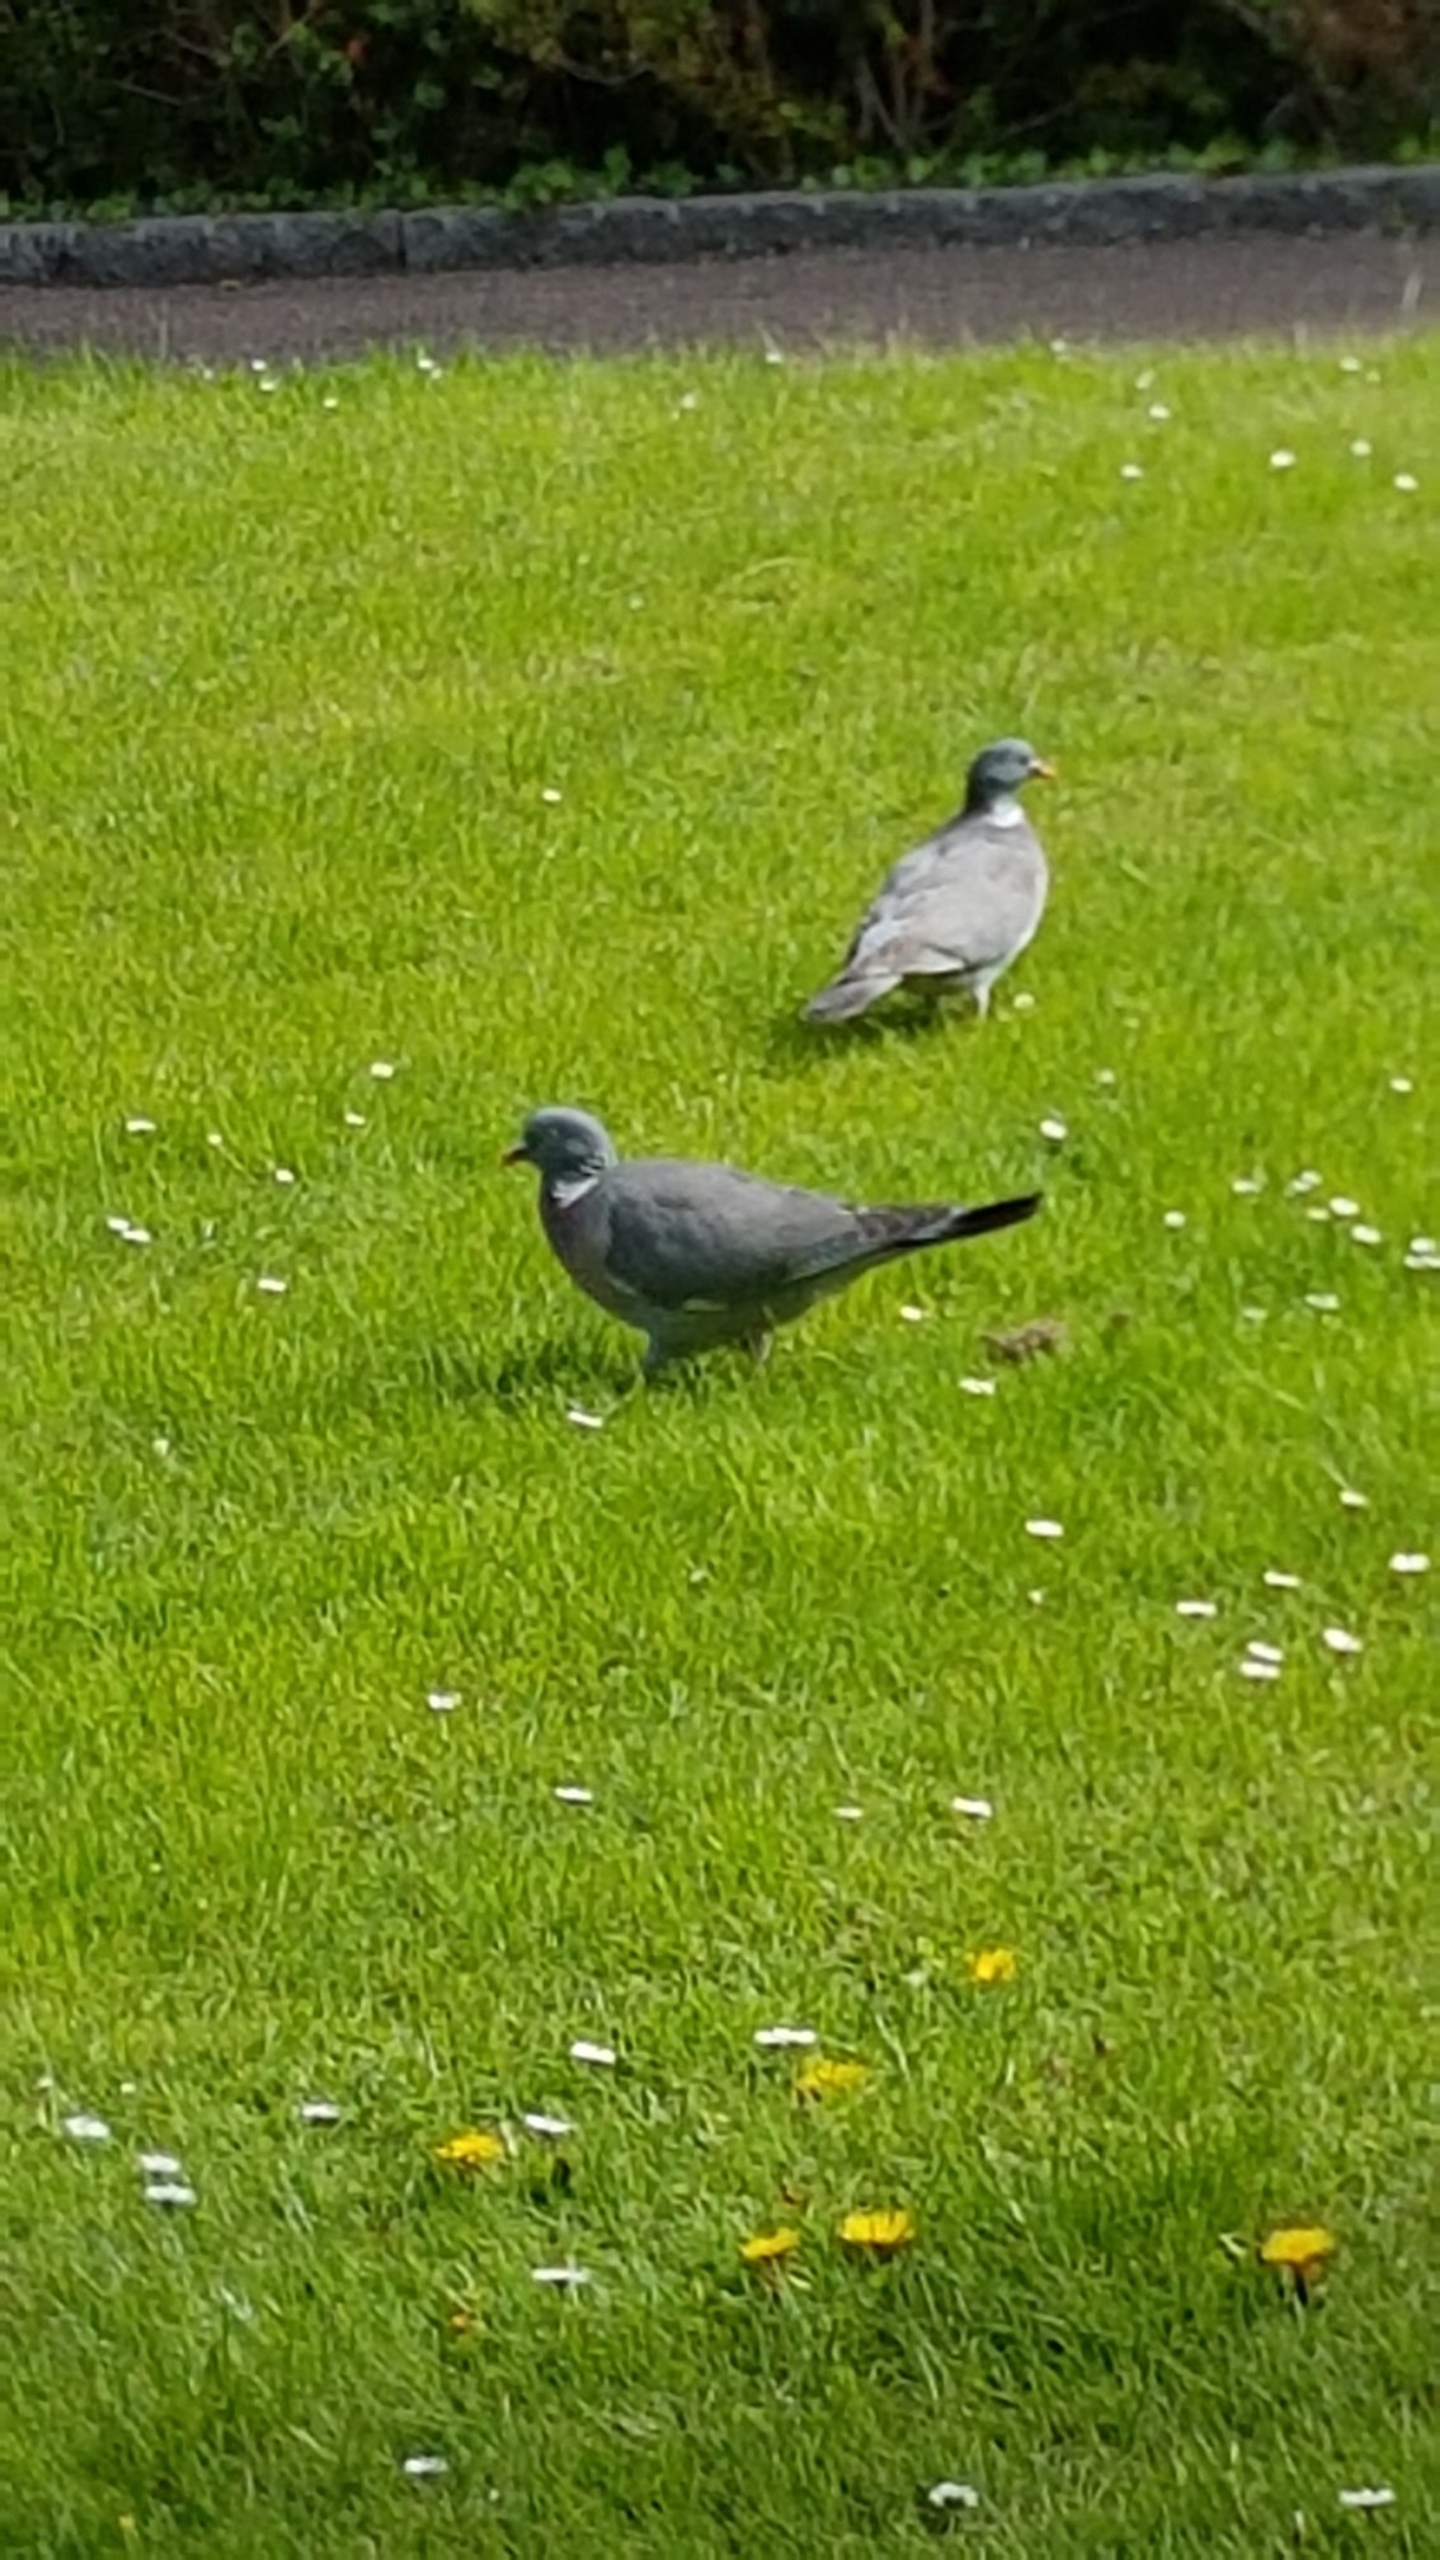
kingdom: Animalia
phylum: Chordata
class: Aves
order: Columbiformes
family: Columbidae
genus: Columba
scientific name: Columba palumbus
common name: Ringdue
